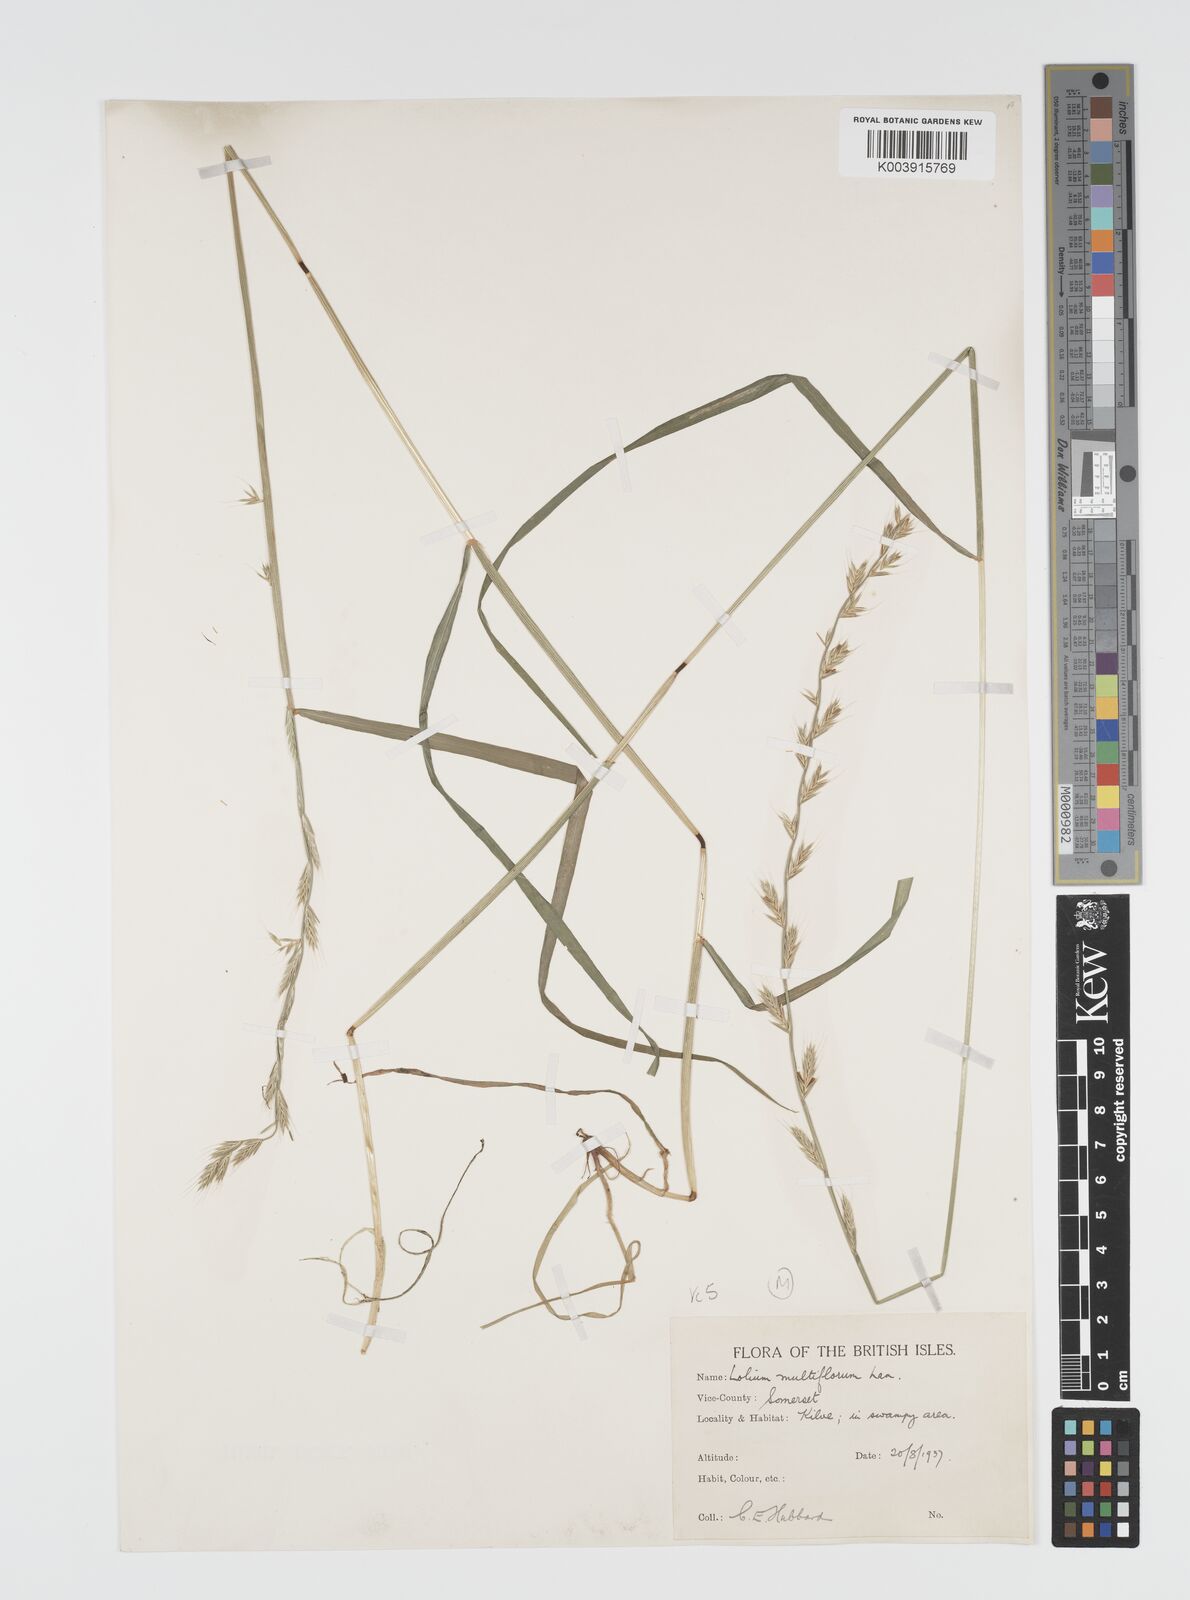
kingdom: Plantae
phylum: Tracheophyta
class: Liliopsida
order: Poales
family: Poaceae
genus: Lolium
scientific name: Lolium multiflorum
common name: Annual ryegrass
